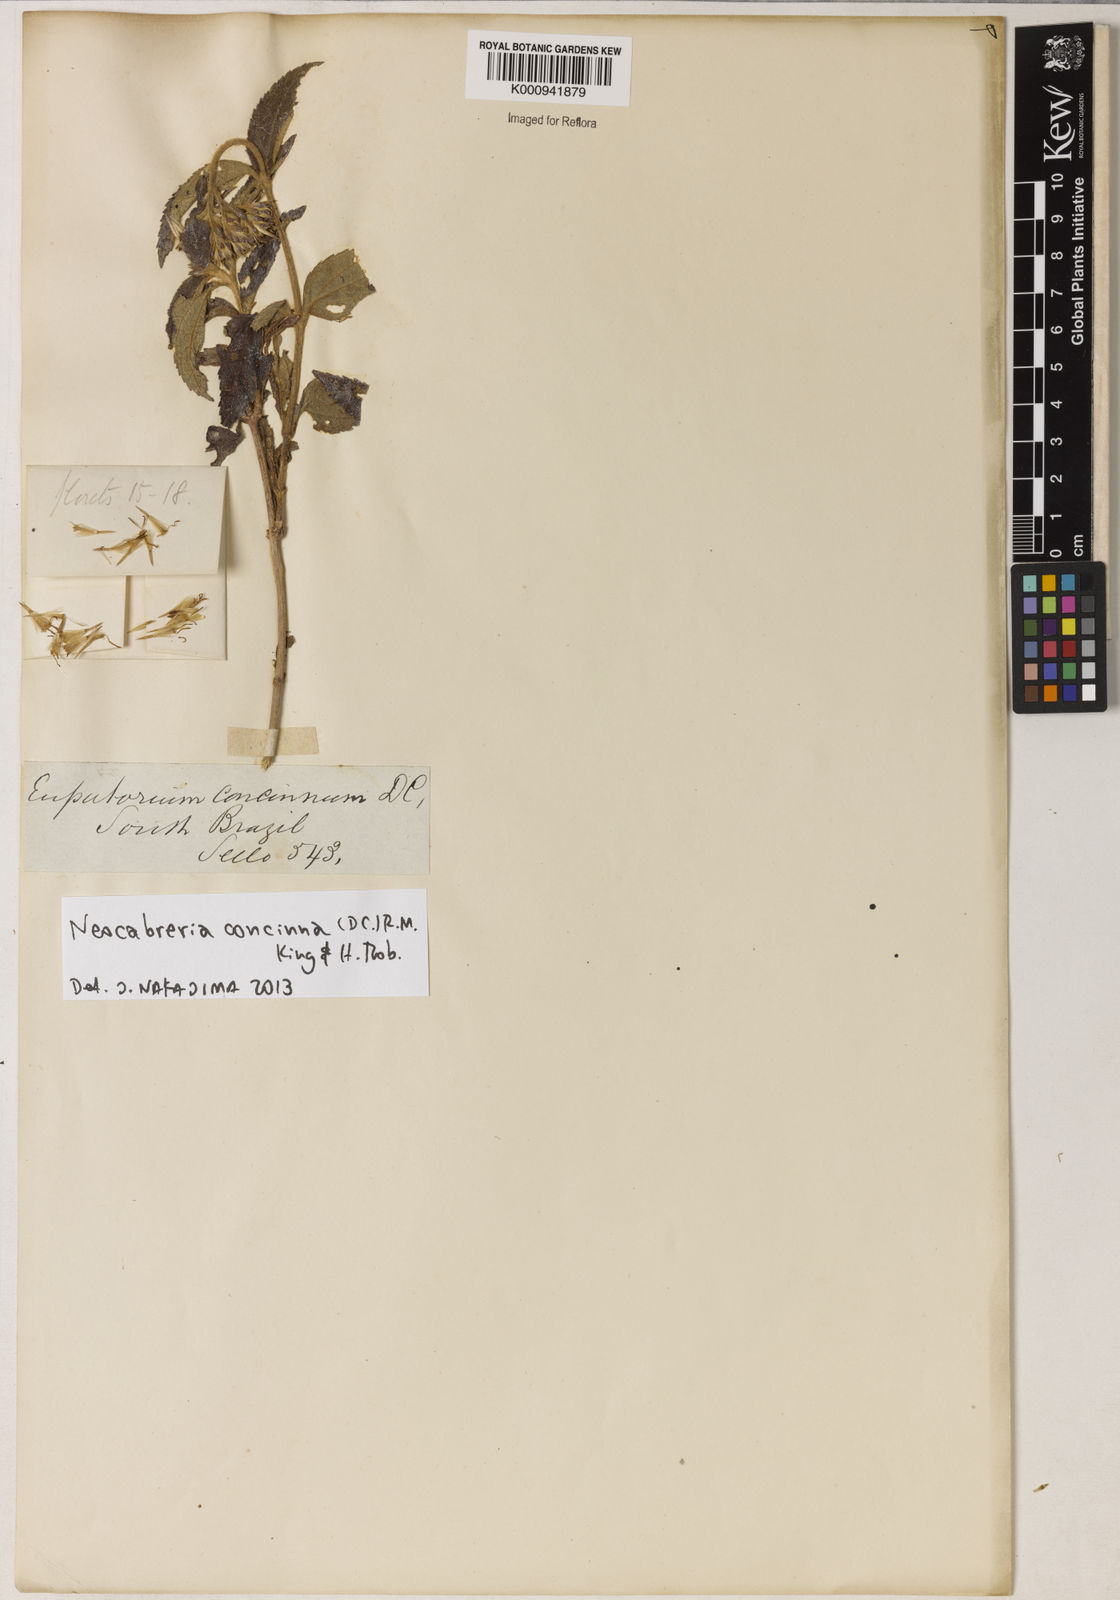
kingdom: Plantae
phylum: Tracheophyta
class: Magnoliopsida
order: Asterales
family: Asteraceae
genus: Neocabreria
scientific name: Neocabreria concinna
